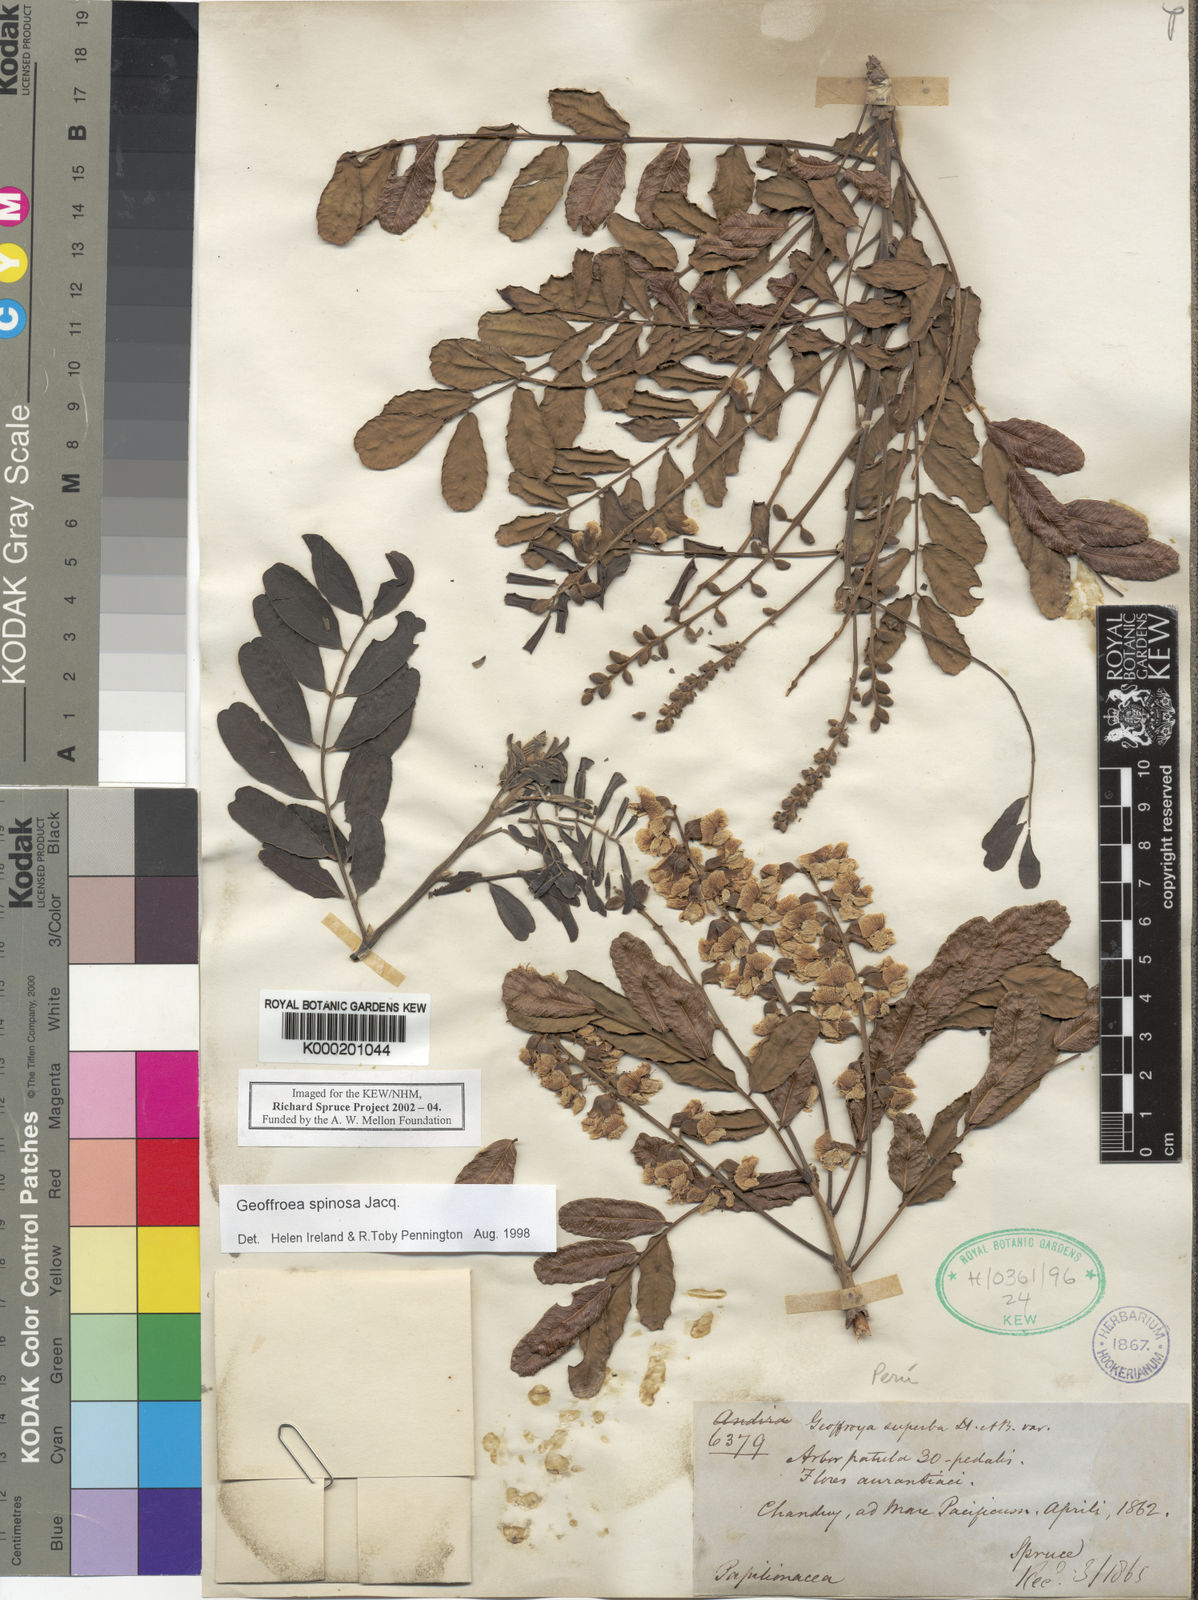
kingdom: Plantae
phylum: Tracheophyta
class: Magnoliopsida
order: Fabales
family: Fabaceae
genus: Geoffroea
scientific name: Geoffroea spinosa
